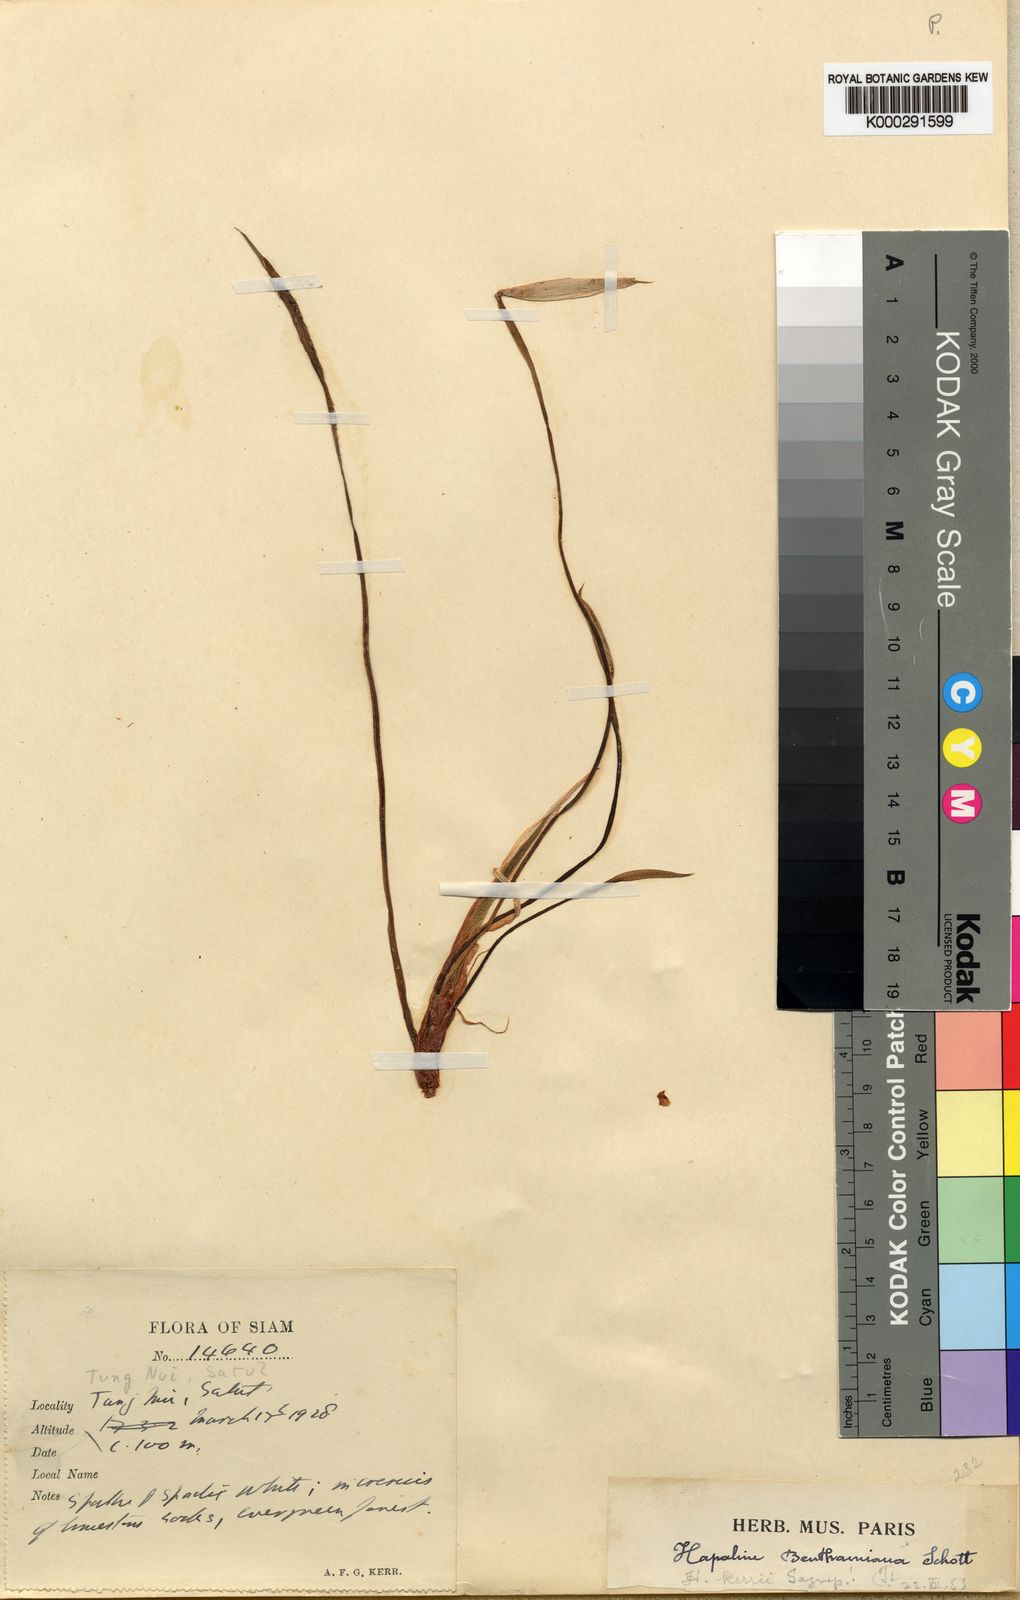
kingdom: Plantae
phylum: Tracheophyta
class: Liliopsida
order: Alismatales
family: Araceae
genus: Hapaline
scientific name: Hapaline kerrii
